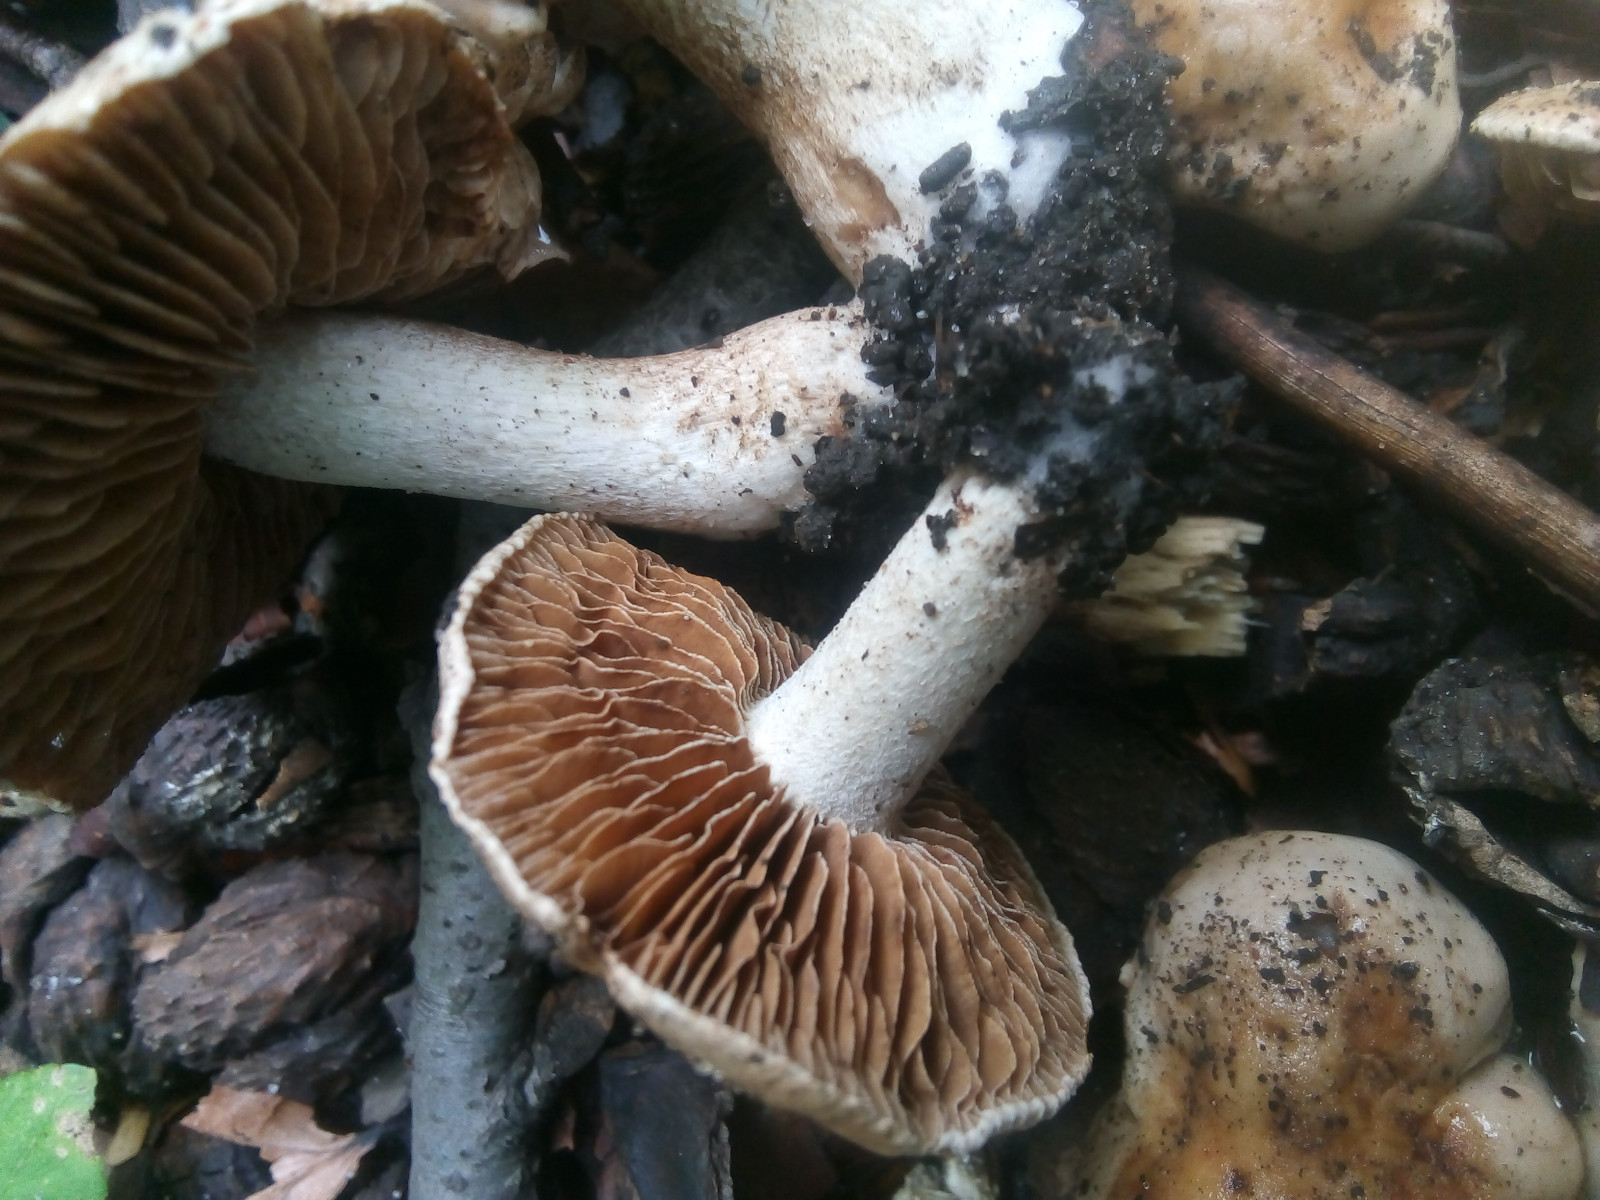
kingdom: Fungi
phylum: Basidiomycota
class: Agaricomycetes
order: Agaricales
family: Hymenogastraceae
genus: Hebeloma
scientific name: Hebeloma
